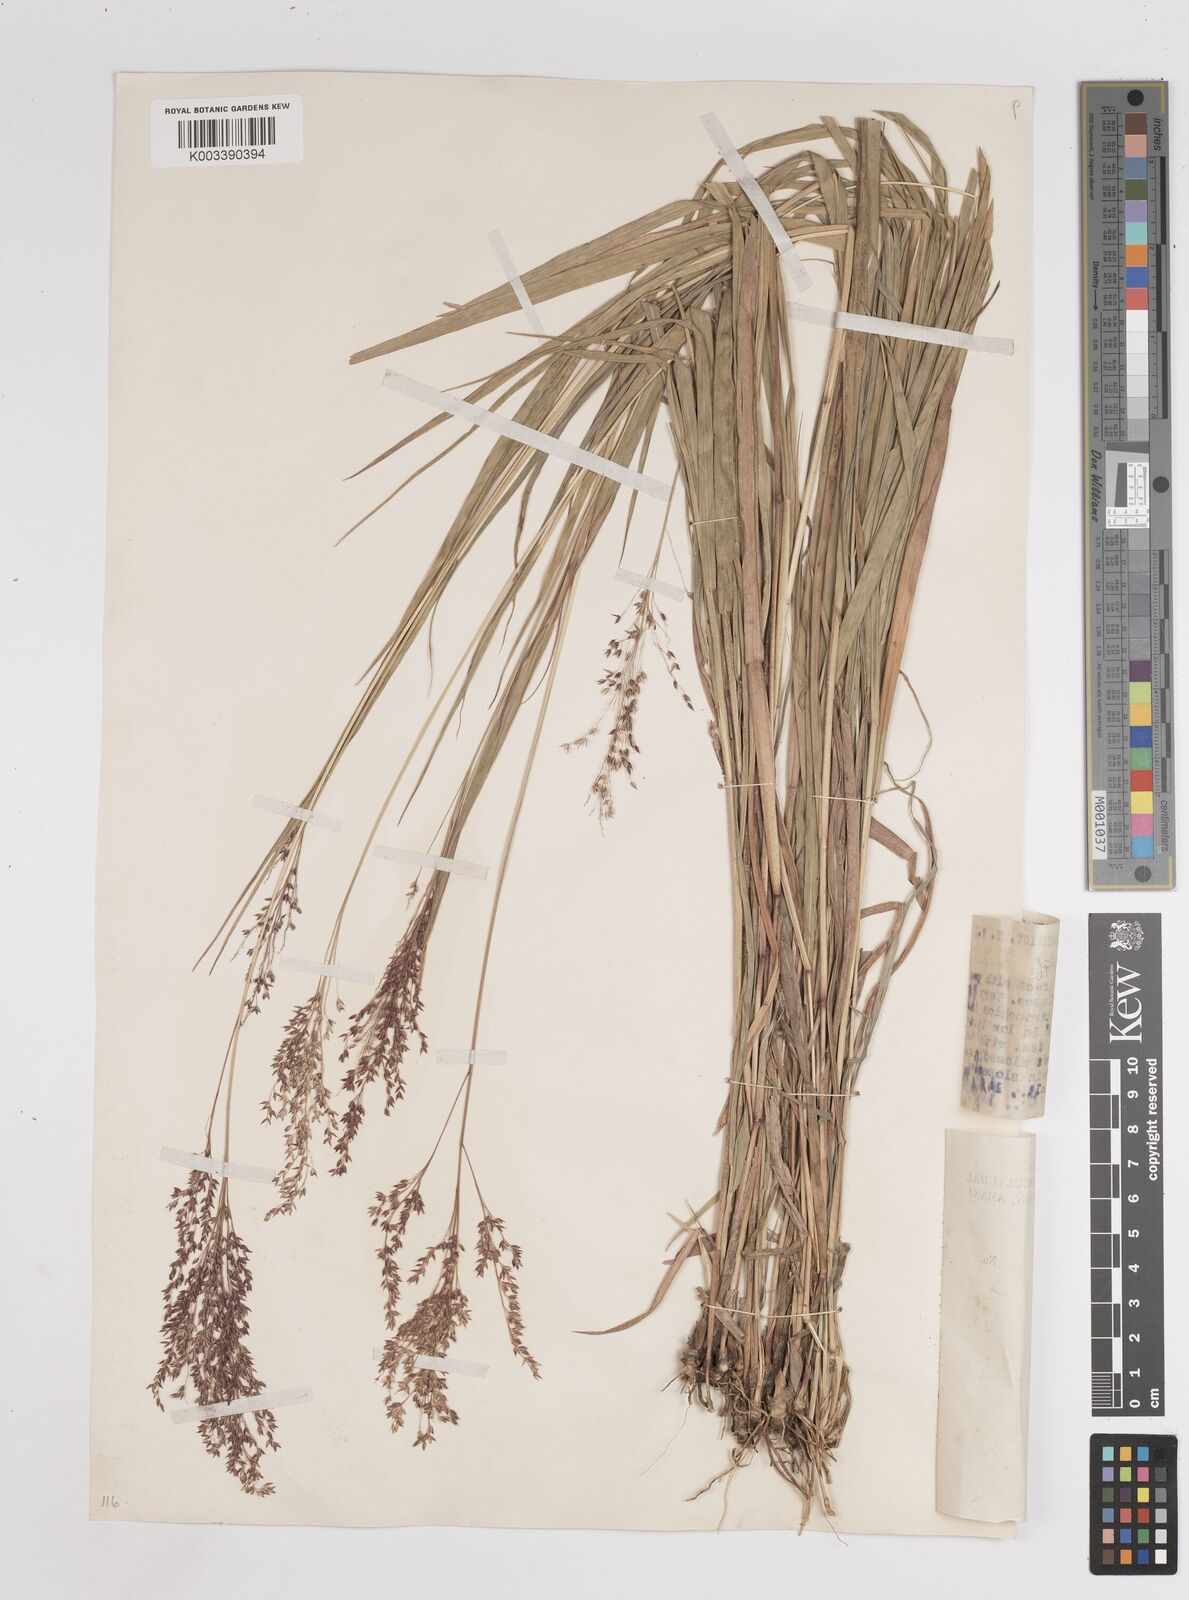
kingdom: Plantae
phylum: Tracheophyta
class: Liliopsida
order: Poales
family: Poaceae
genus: Panicum
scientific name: Panicum
